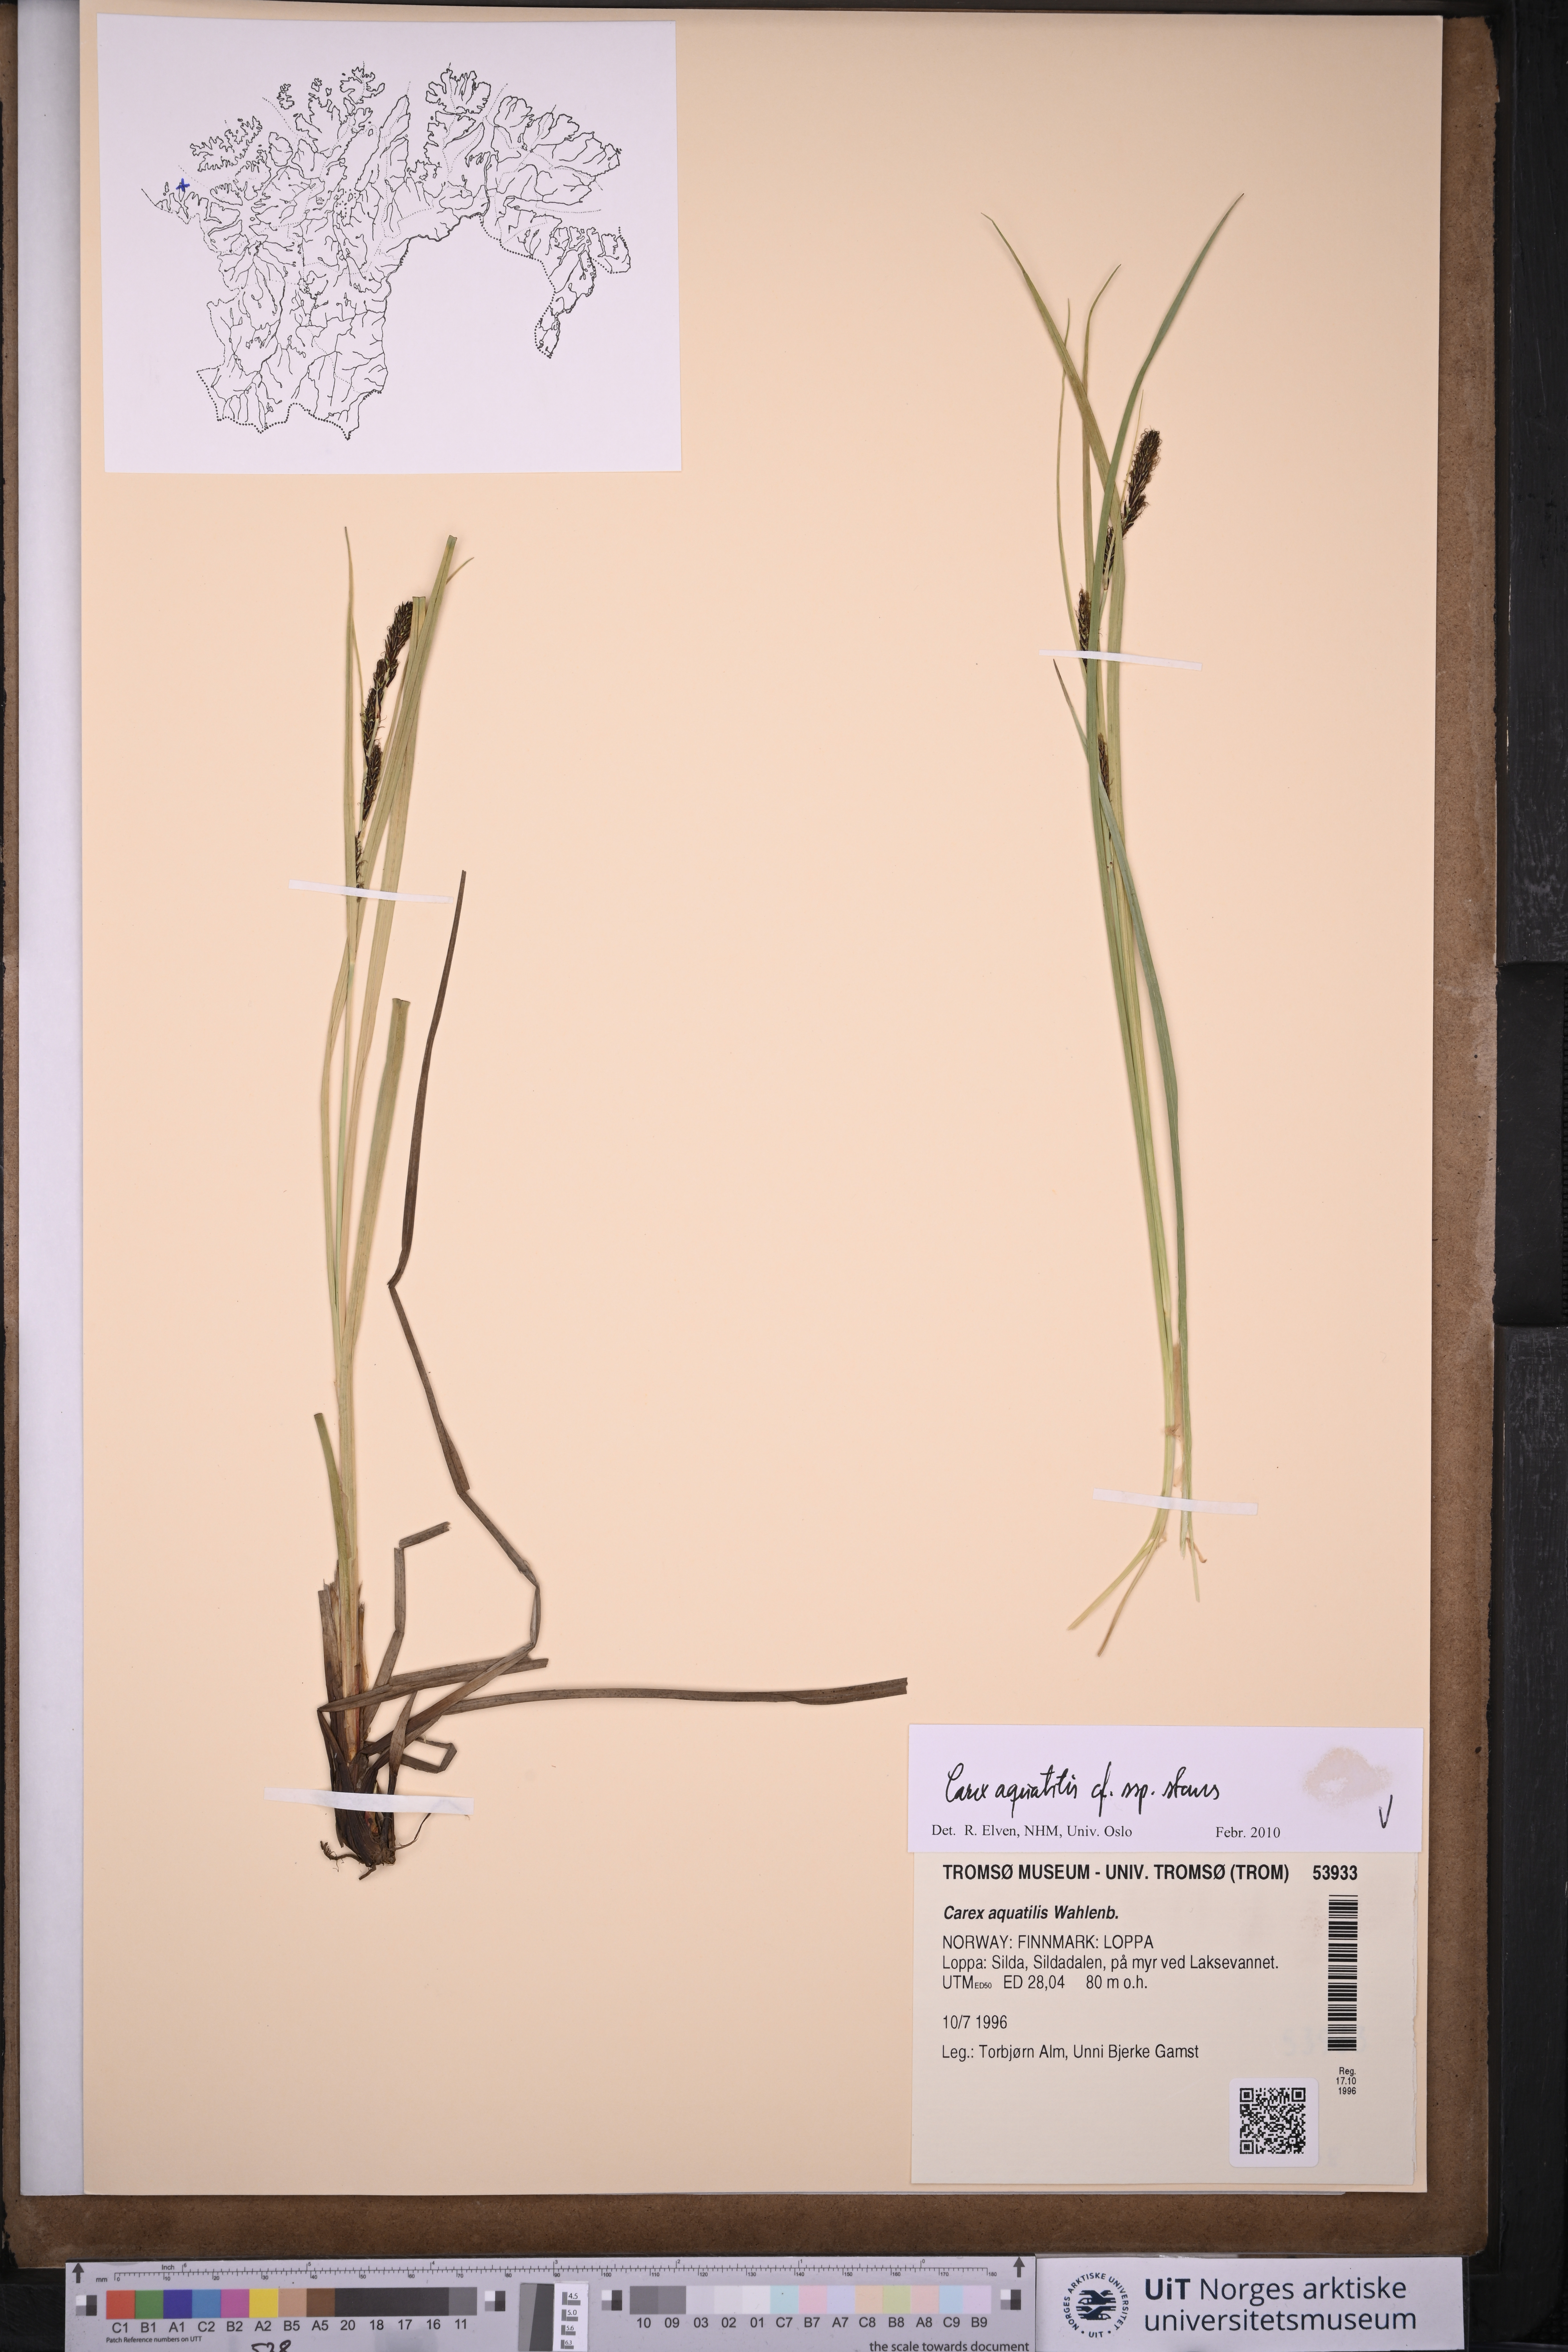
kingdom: Plantae
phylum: Tracheophyta
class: Liliopsida
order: Poales
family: Cyperaceae
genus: Carex
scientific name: Carex aquatilis
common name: Water sedge
